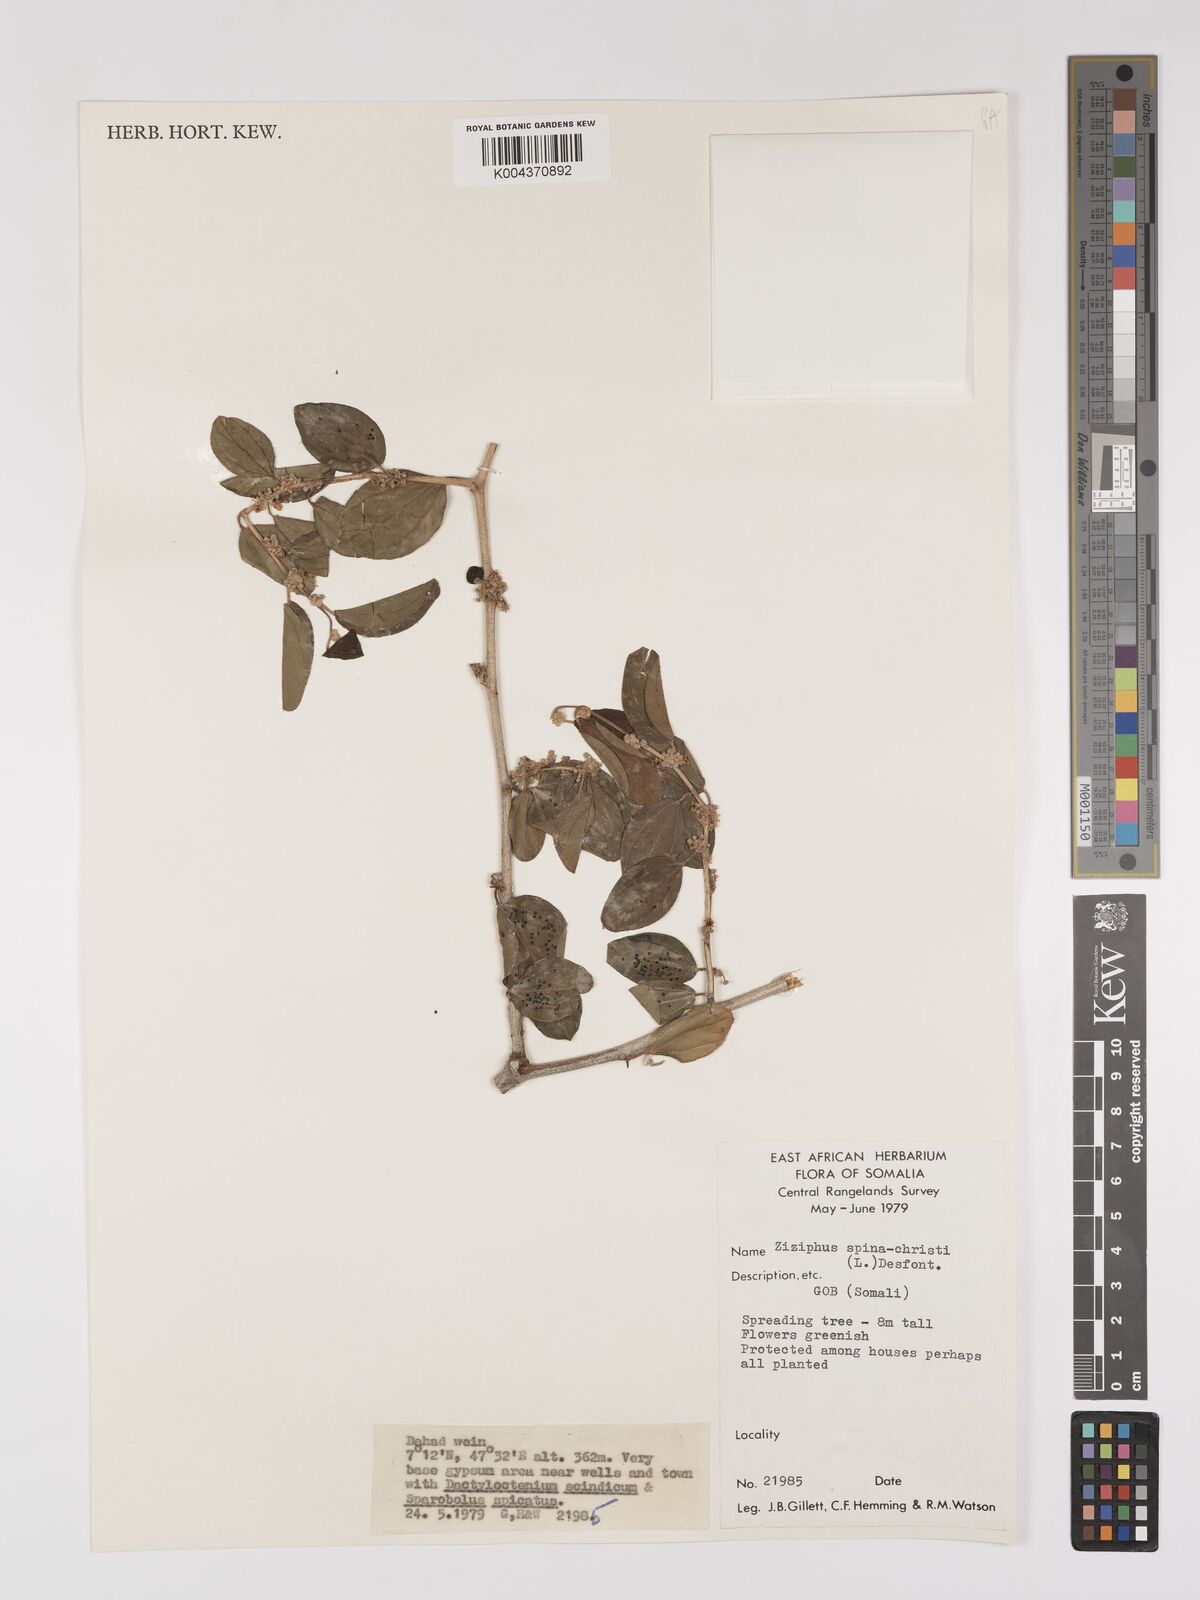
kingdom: Plantae
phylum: Tracheophyta
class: Magnoliopsida
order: Rosales
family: Rhamnaceae
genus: Ziziphus
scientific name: Ziziphus spina-christi
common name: Syrian christ-thorn
